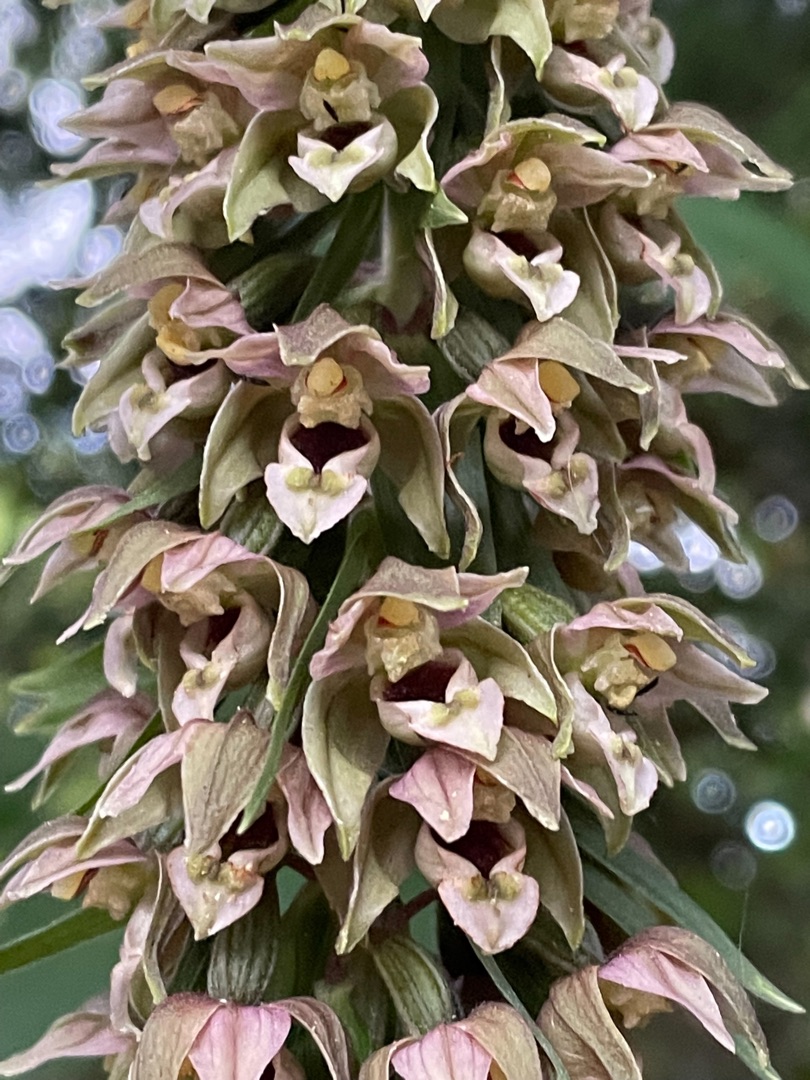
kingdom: Plantae
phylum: Tracheophyta
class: Liliopsida
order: Asparagales
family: Orchidaceae
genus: Epipactis
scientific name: Epipactis helleborine
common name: Skov-hullæbe
